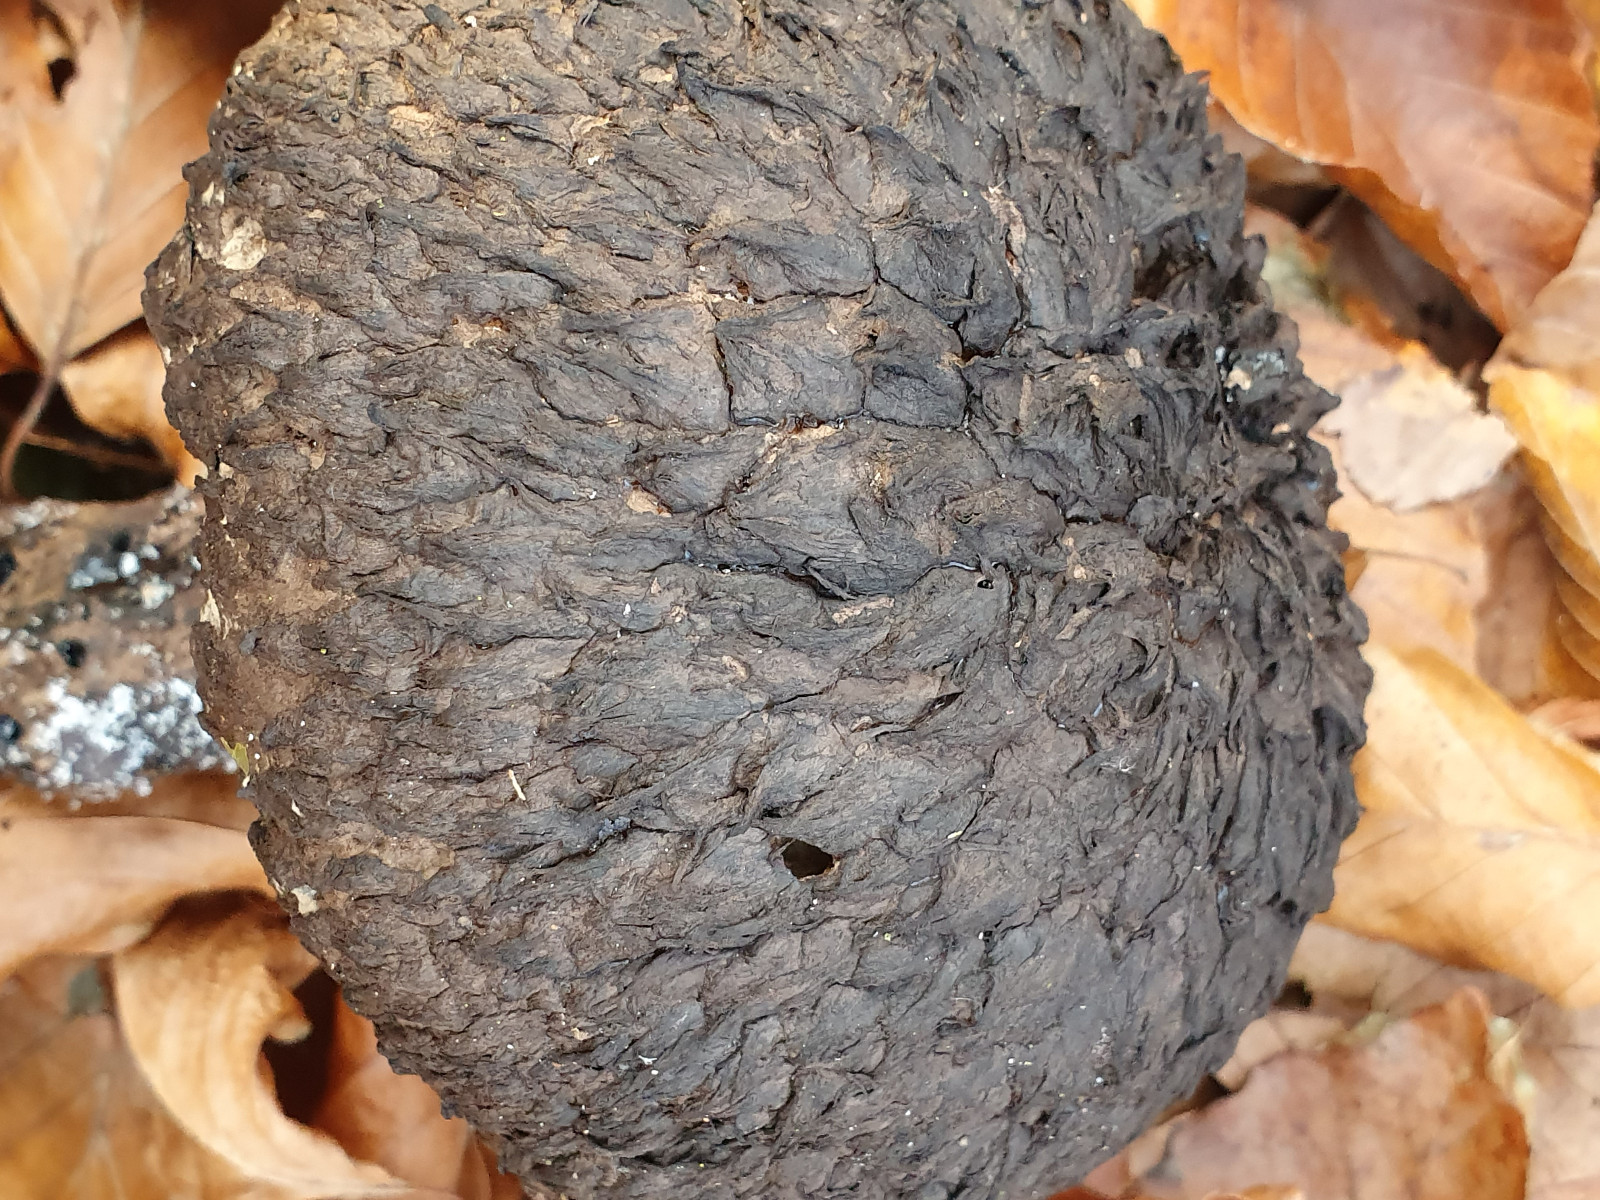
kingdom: Fungi
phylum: Basidiomycota
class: Agaricomycetes
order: Boletales
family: Boletaceae
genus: Strobilomyces
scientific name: Strobilomyces strobilaceus
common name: koglerørhat
